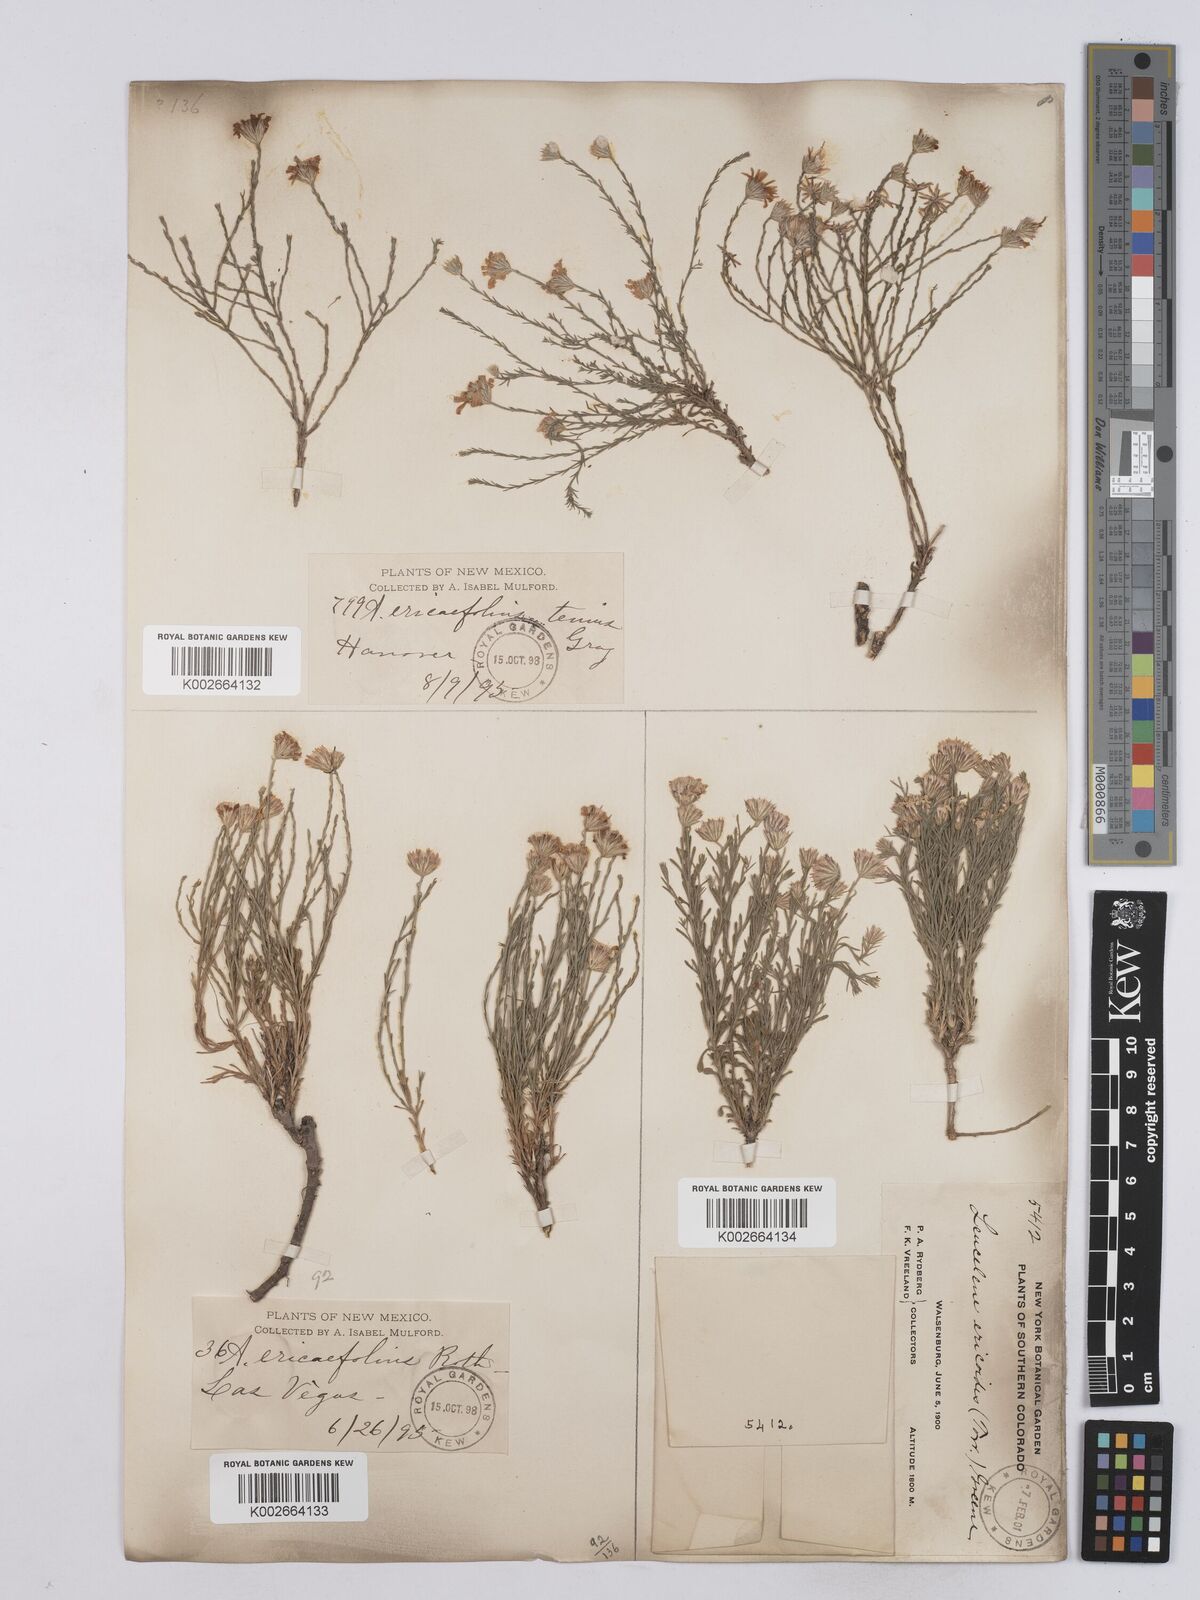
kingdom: Plantae
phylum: Tracheophyta
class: Magnoliopsida
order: Asterales
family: Asteraceae
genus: Chaetopappa
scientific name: Chaetopappa ericoides
